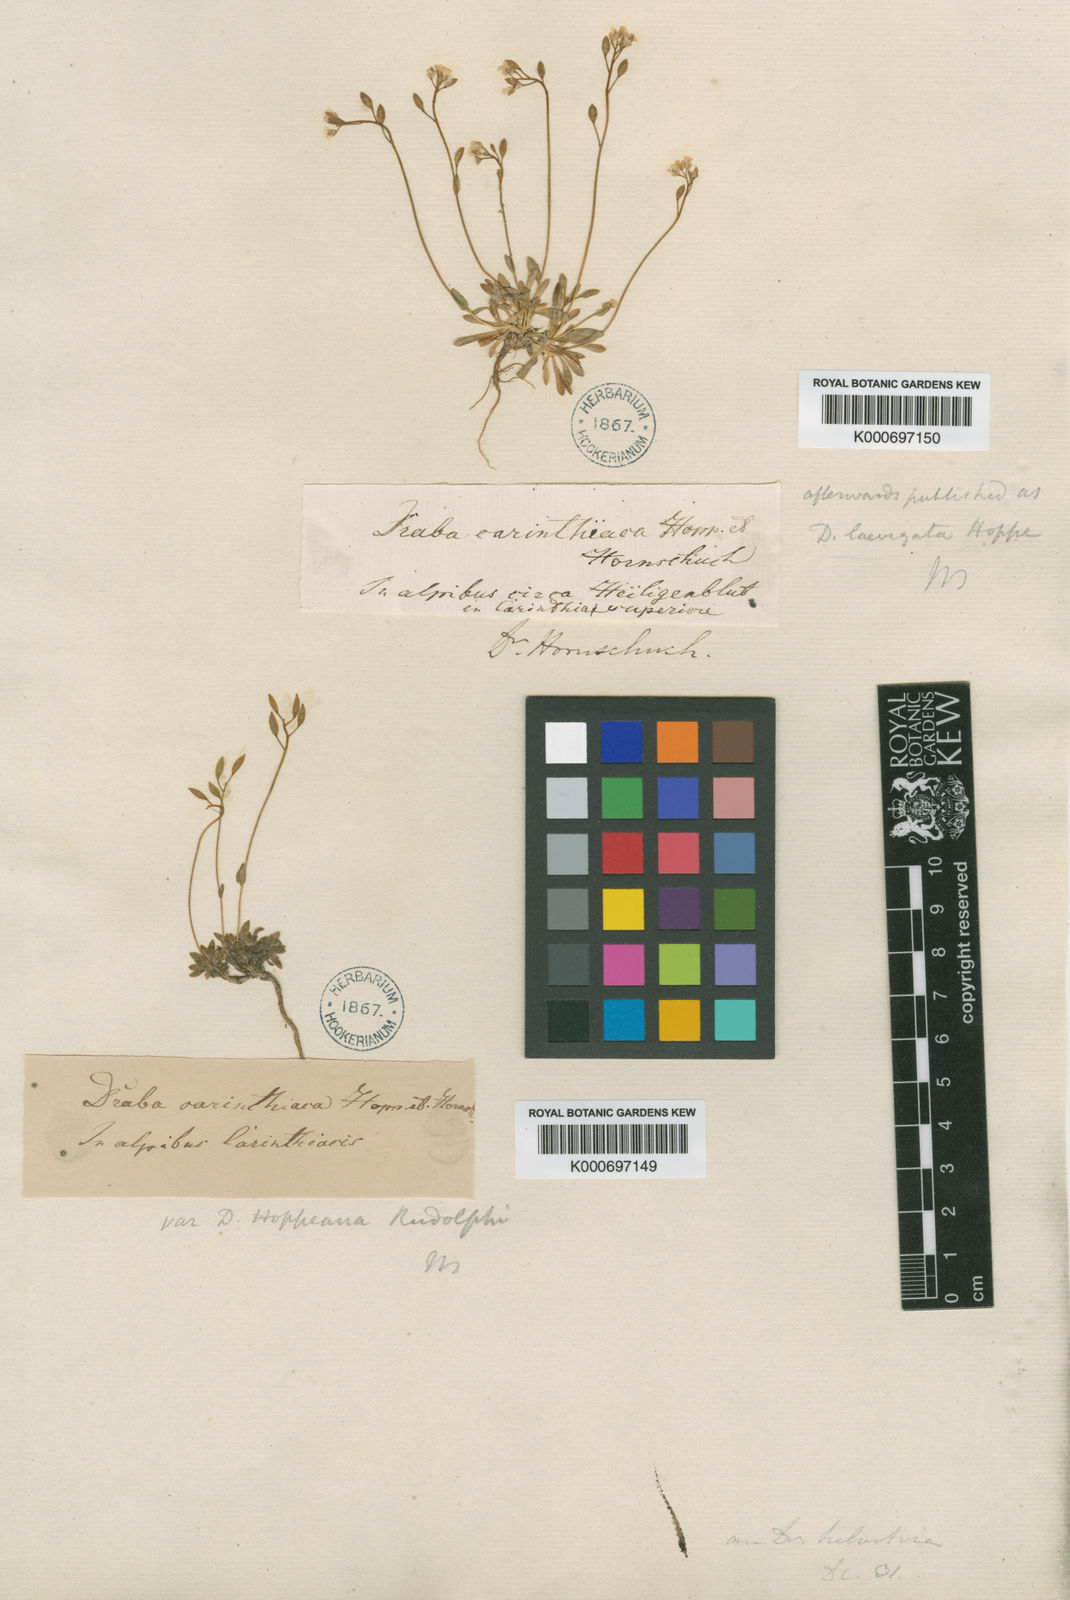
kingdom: Plantae
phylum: Tracheophyta
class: Magnoliopsida
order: Brassicales
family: Brassicaceae
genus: Draba
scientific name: Draba siliquosa
